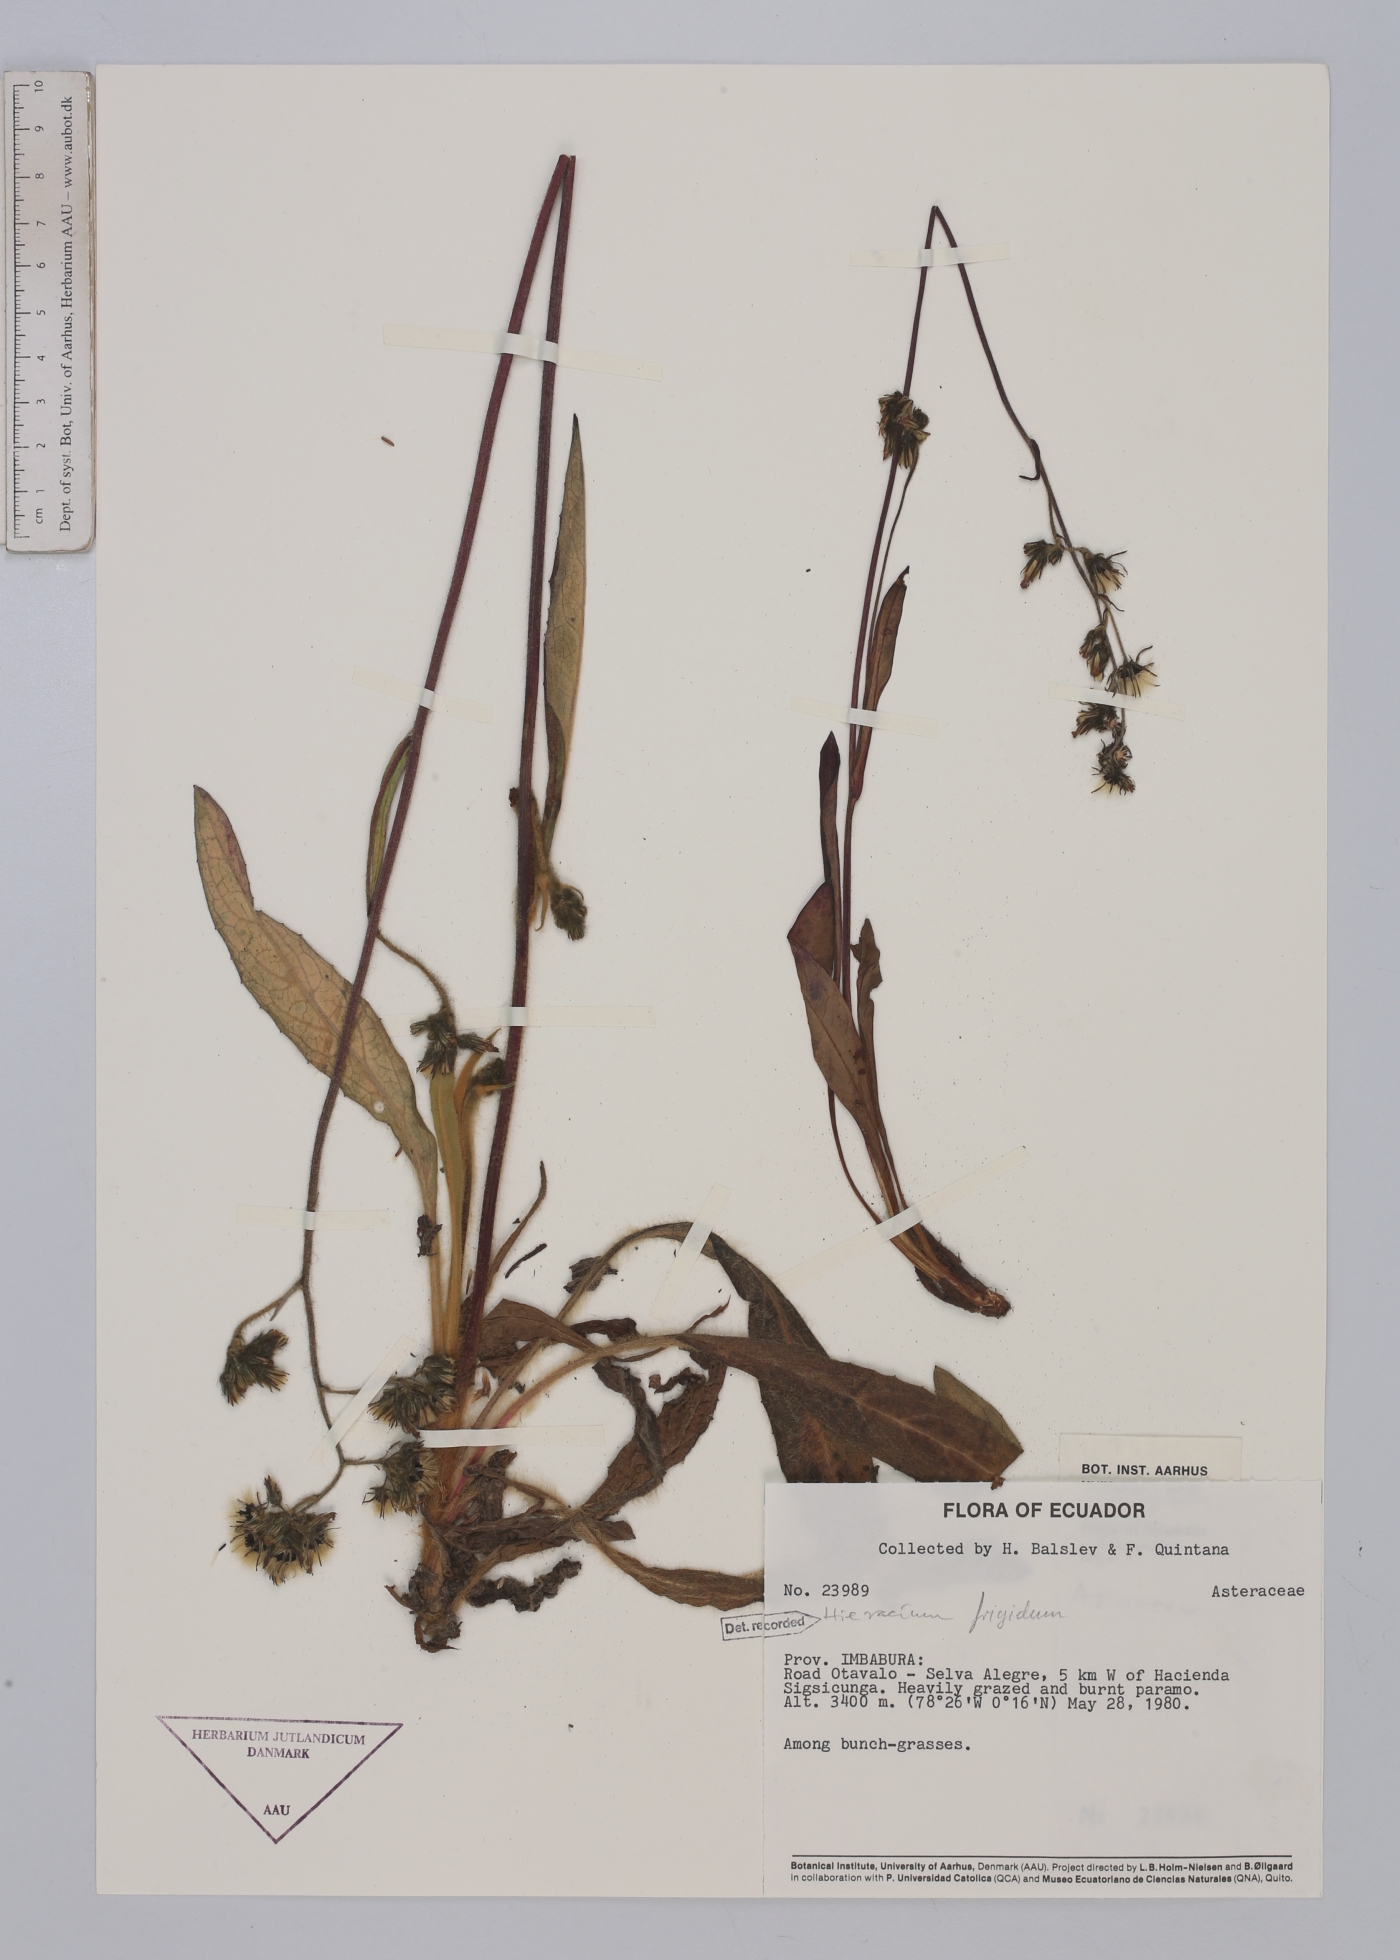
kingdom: Plantae
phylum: Tracheophyta
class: Magnoliopsida
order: Asterales
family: Asteraceae
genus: Hieracium
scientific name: Hieracium jubatum
